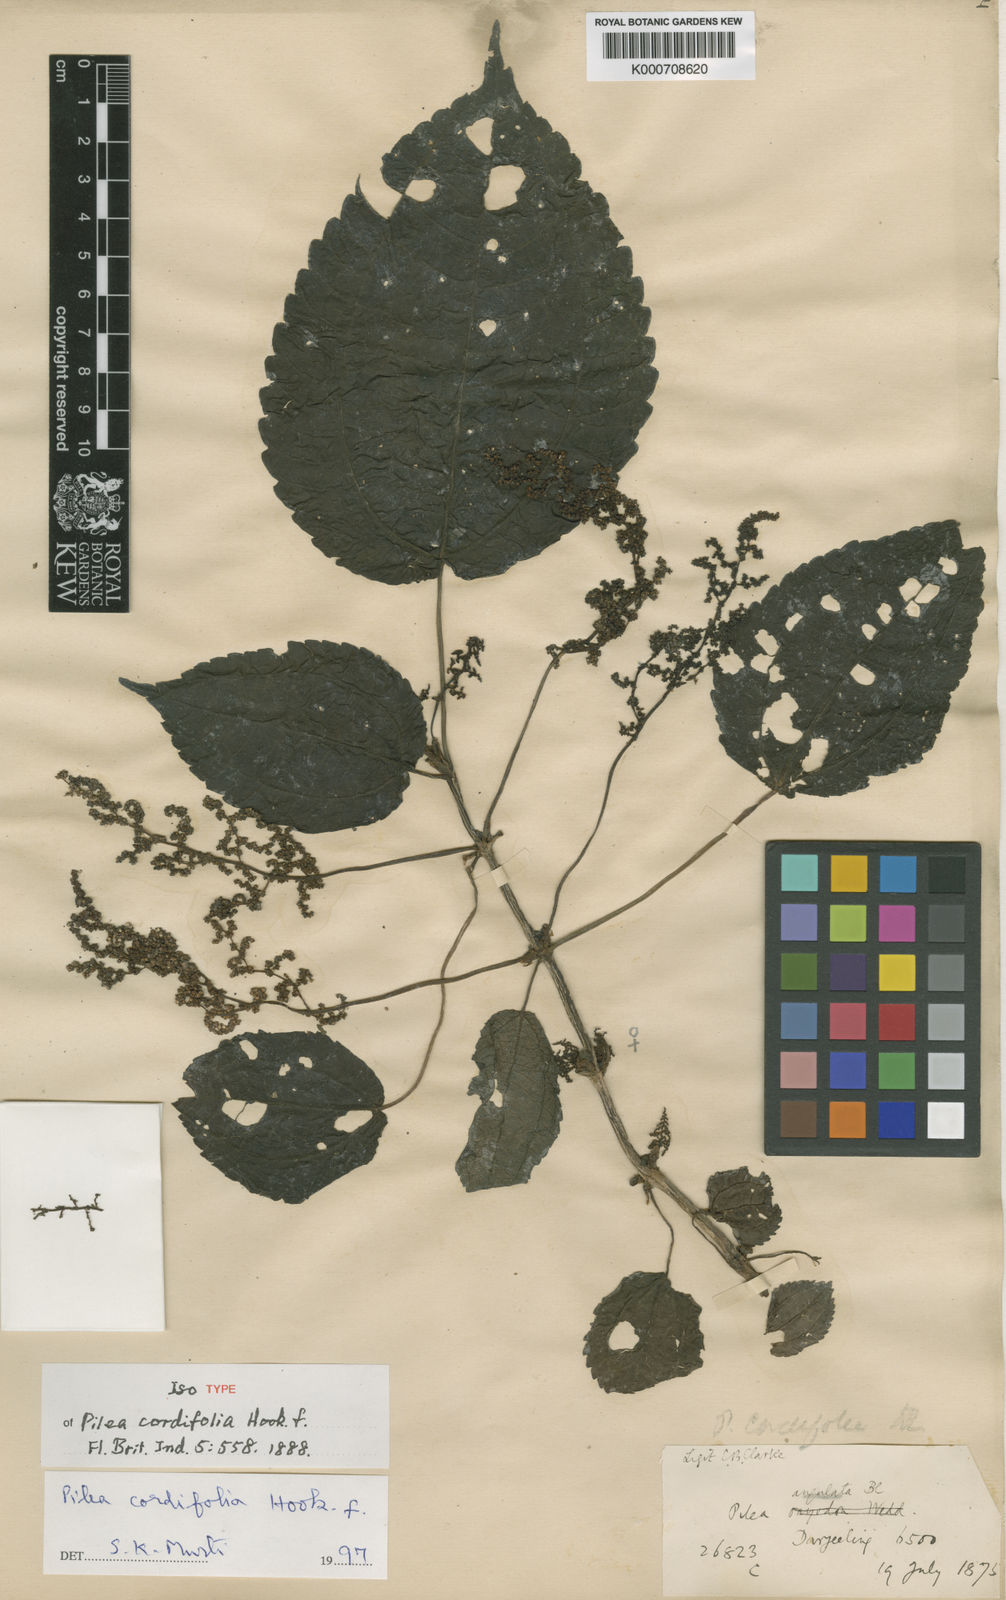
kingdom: Plantae
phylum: Tracheophyta
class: Magnoliopsida
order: Rosales
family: Urticaceae
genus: Pilea
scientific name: Pilea cordifolia
